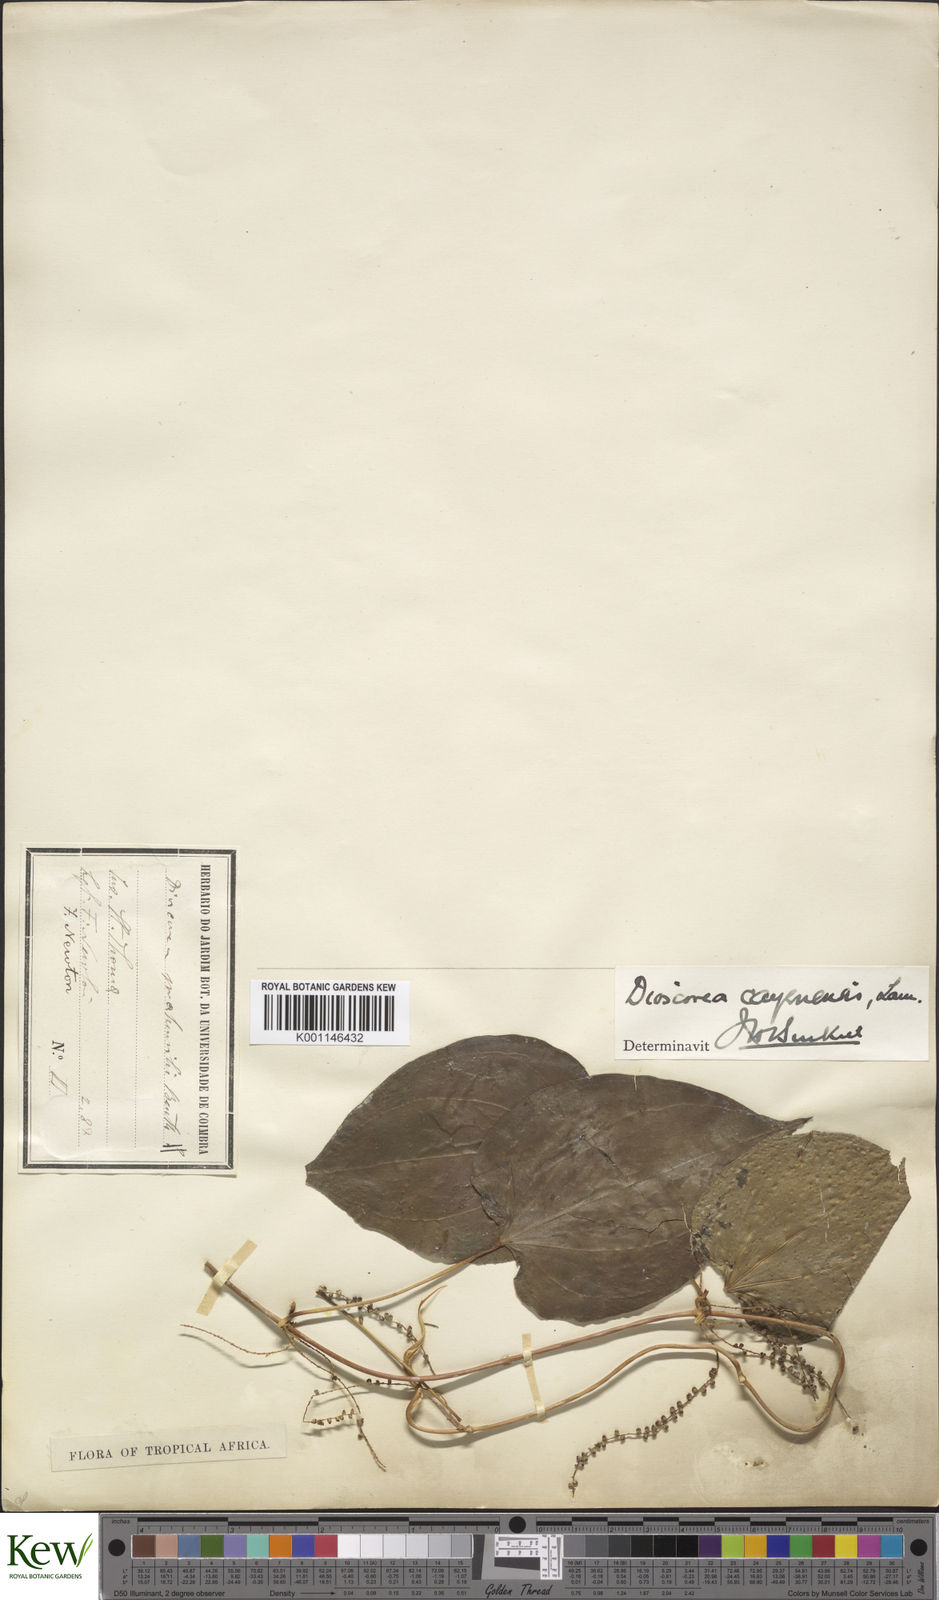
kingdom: Plantae
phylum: Tracheophyta
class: Liliopsida
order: Dioscoreales
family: Dioscoreaceae
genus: Dioscorea
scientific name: Dioscorea praehensilis
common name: Bush yam
